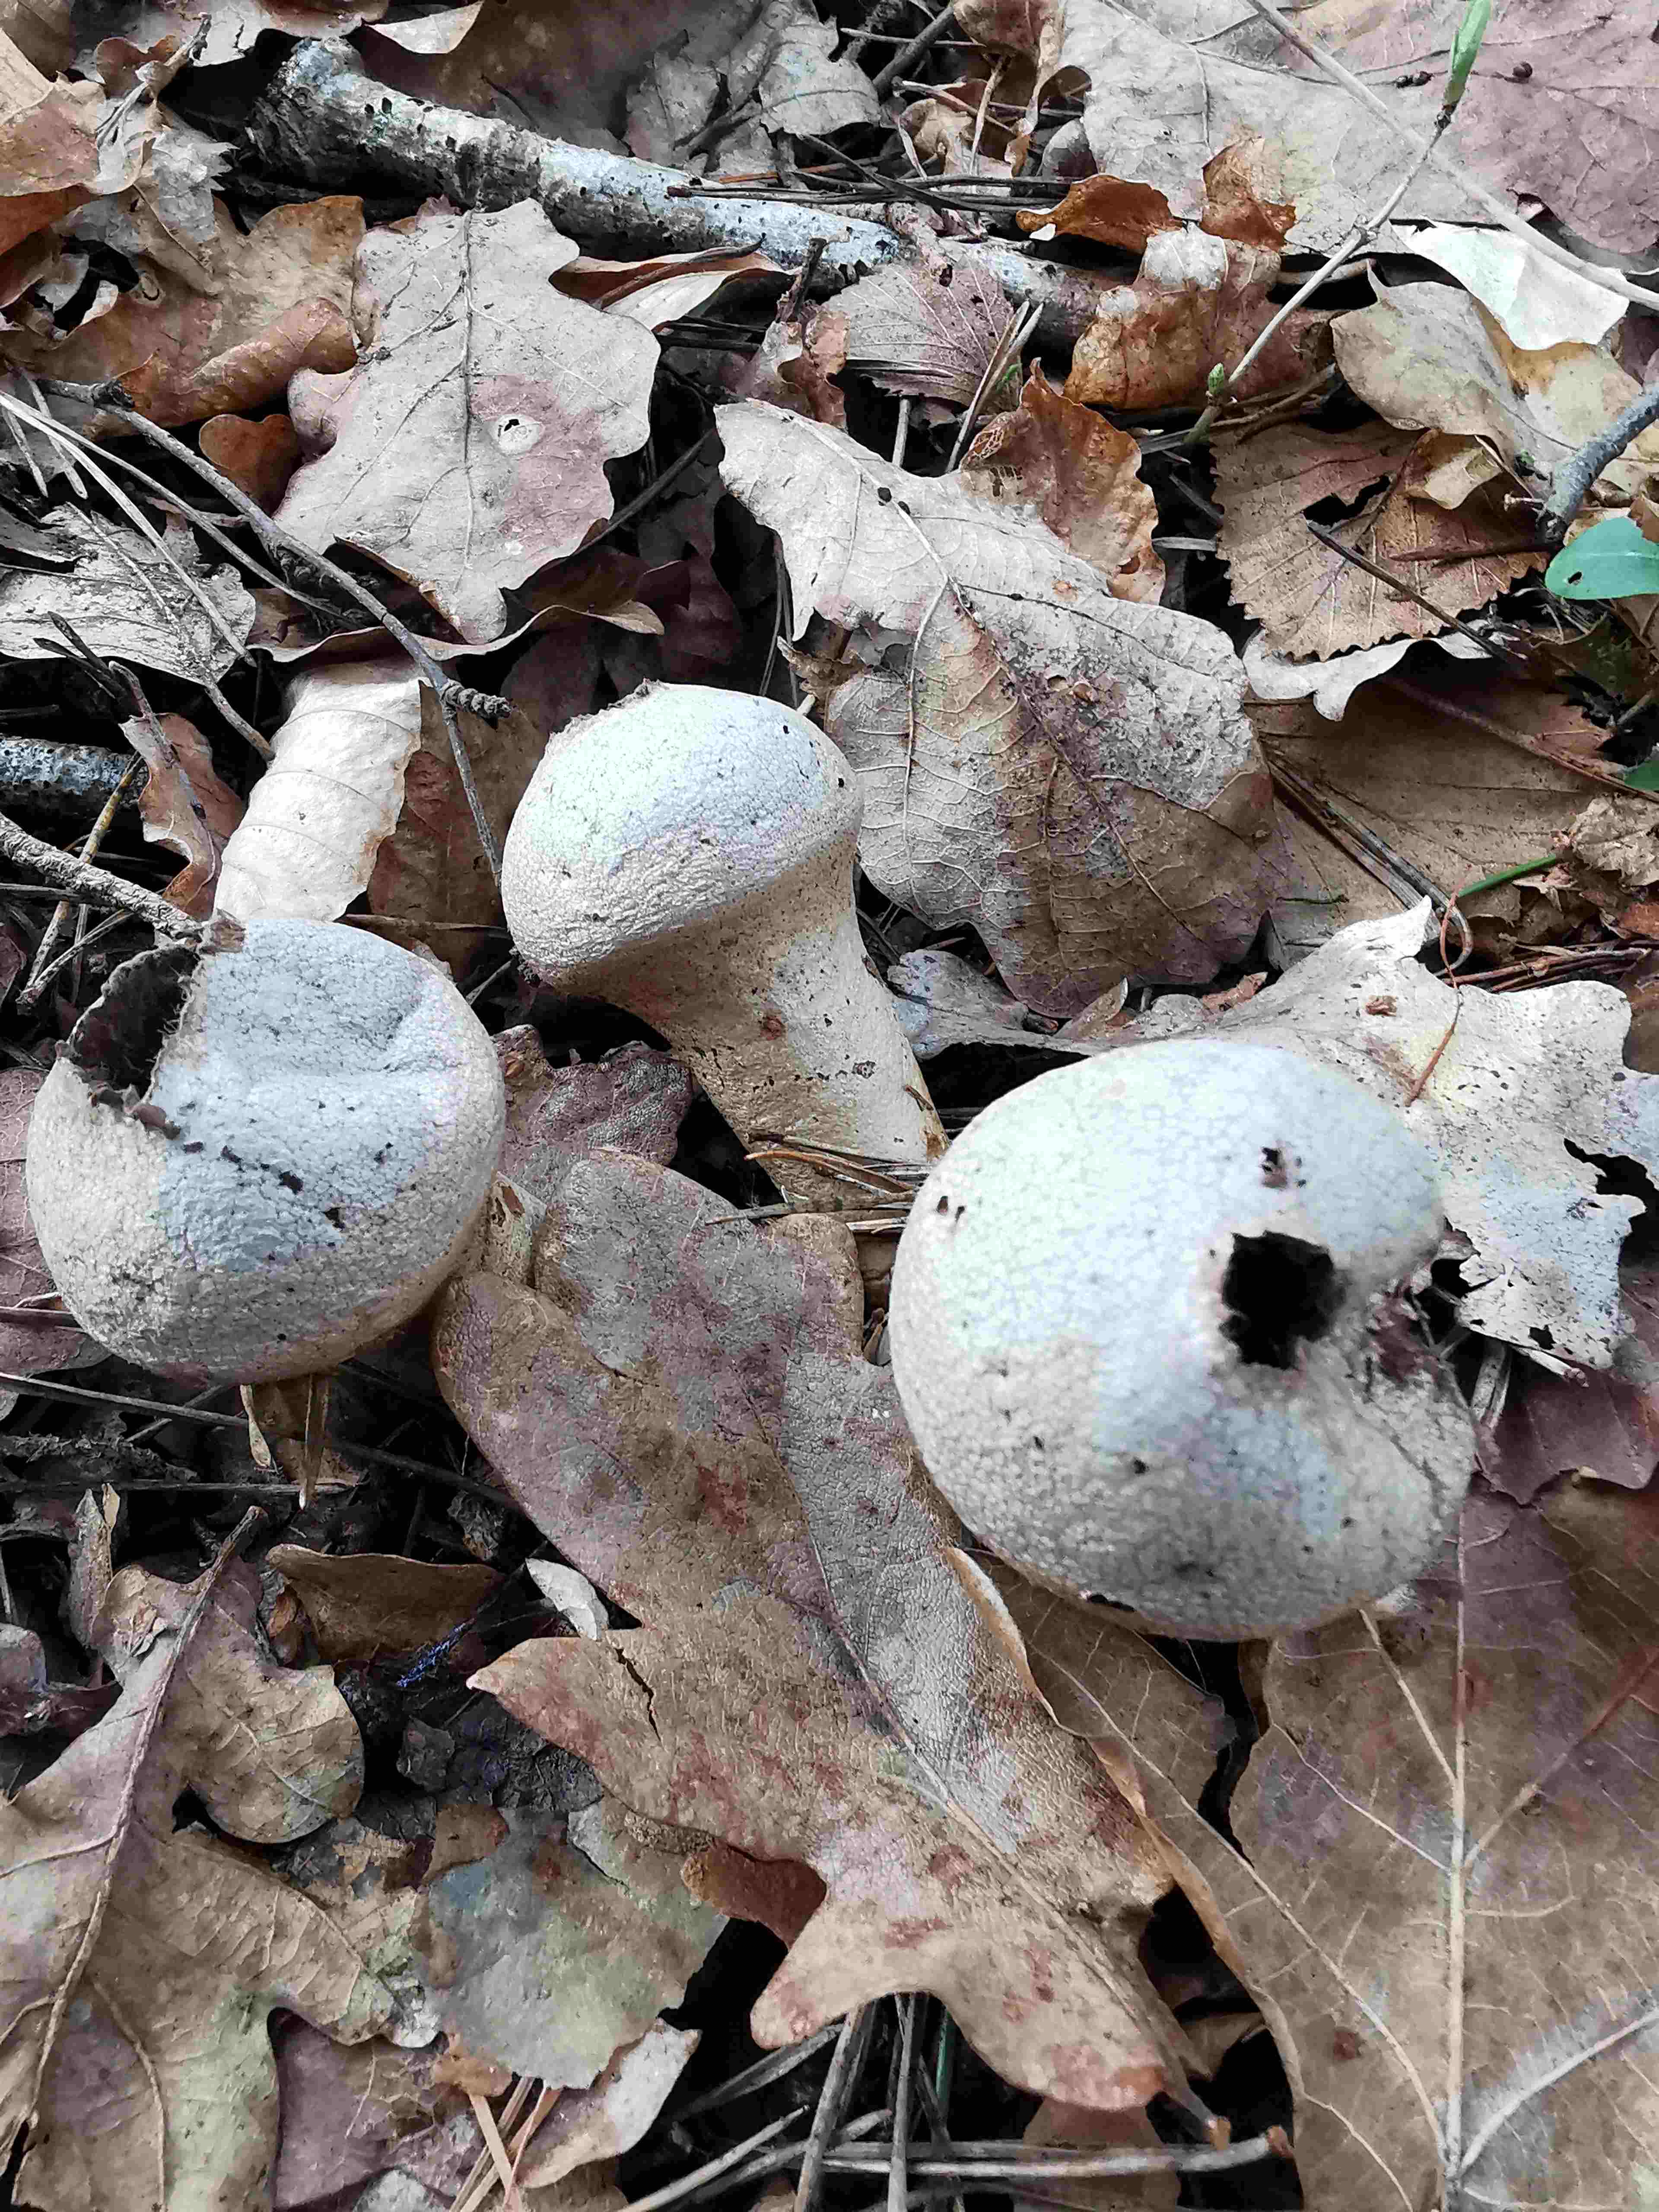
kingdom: Fungi
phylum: Basidiomycota
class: Agaricomycetes
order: Agaricales
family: Lycoperdaceae
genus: Lycoperdon
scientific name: Lycoperdon perlatum
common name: krystal-støvbold
